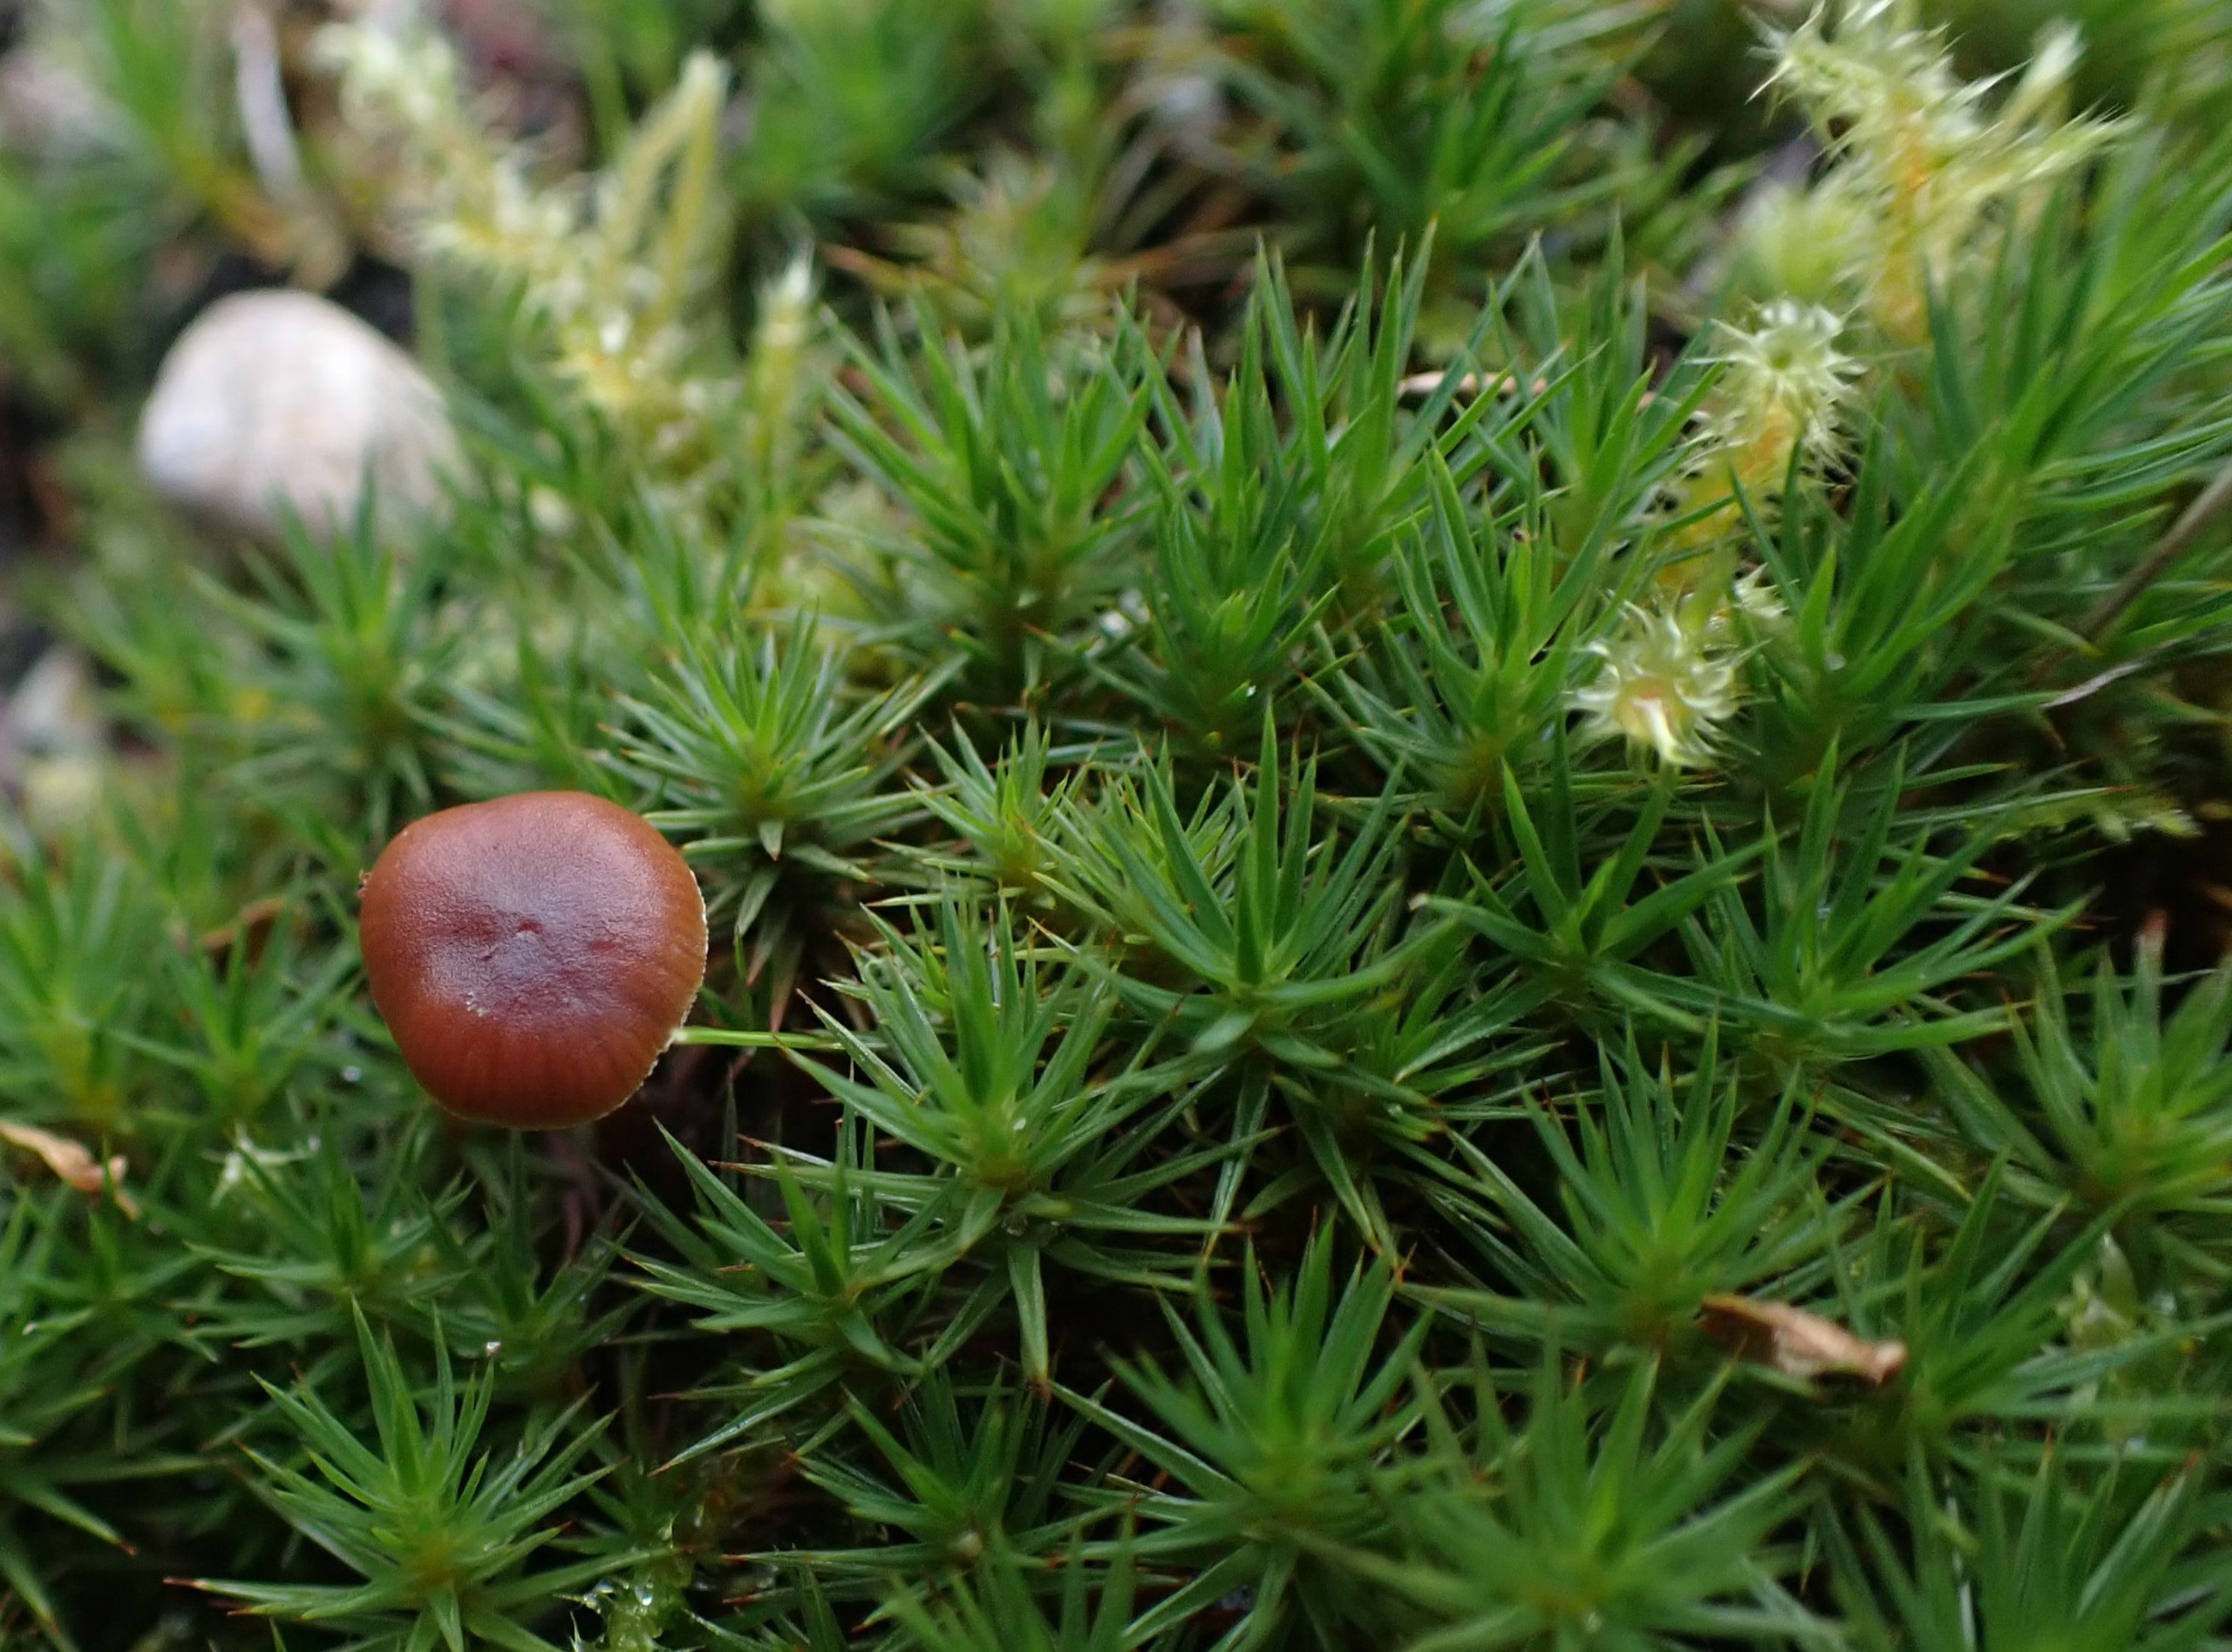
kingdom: Plantae
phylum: Bryophyta
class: Polytrichopsida
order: Polytrichales
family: Polytrichaceae
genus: Polytrichum
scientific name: Polytrichum juniperinum
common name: Ene-jomfruhår
